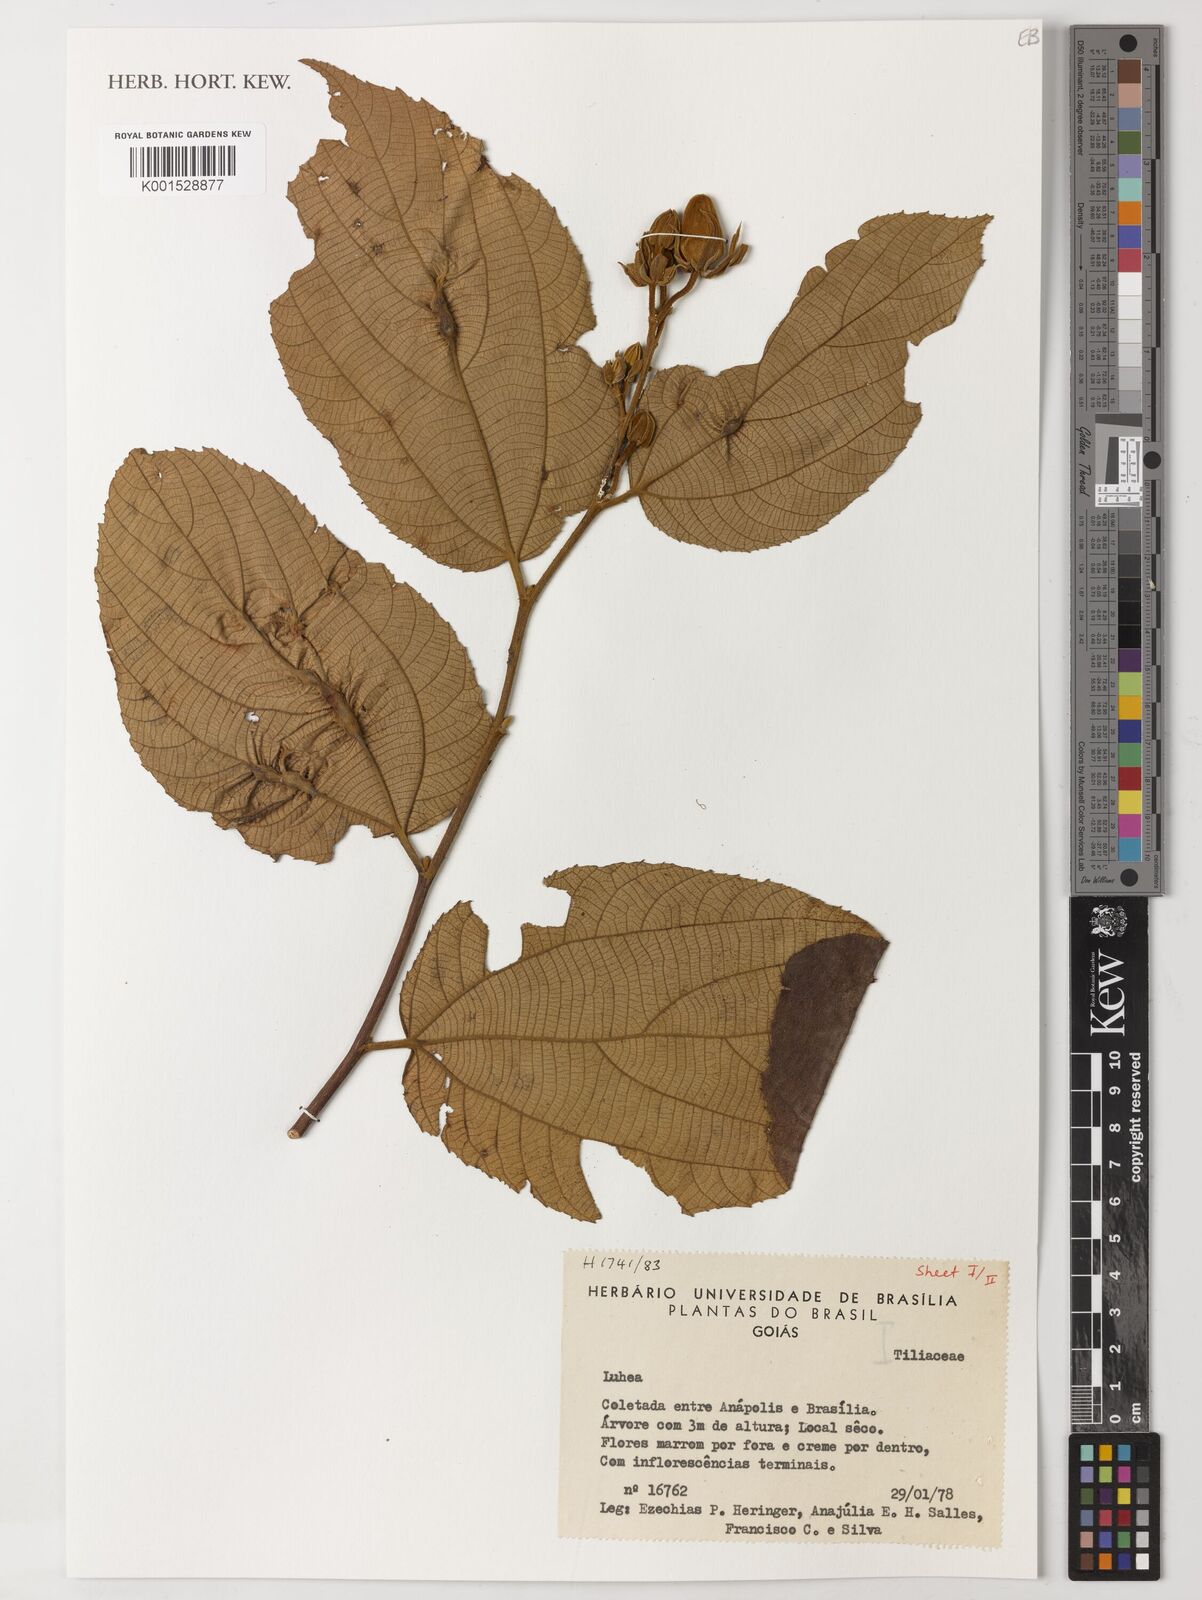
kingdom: Plantae
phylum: Tracheophyta
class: Magnoliopsida
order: Malvales
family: Malvaceae
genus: Luehea
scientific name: Luehea
